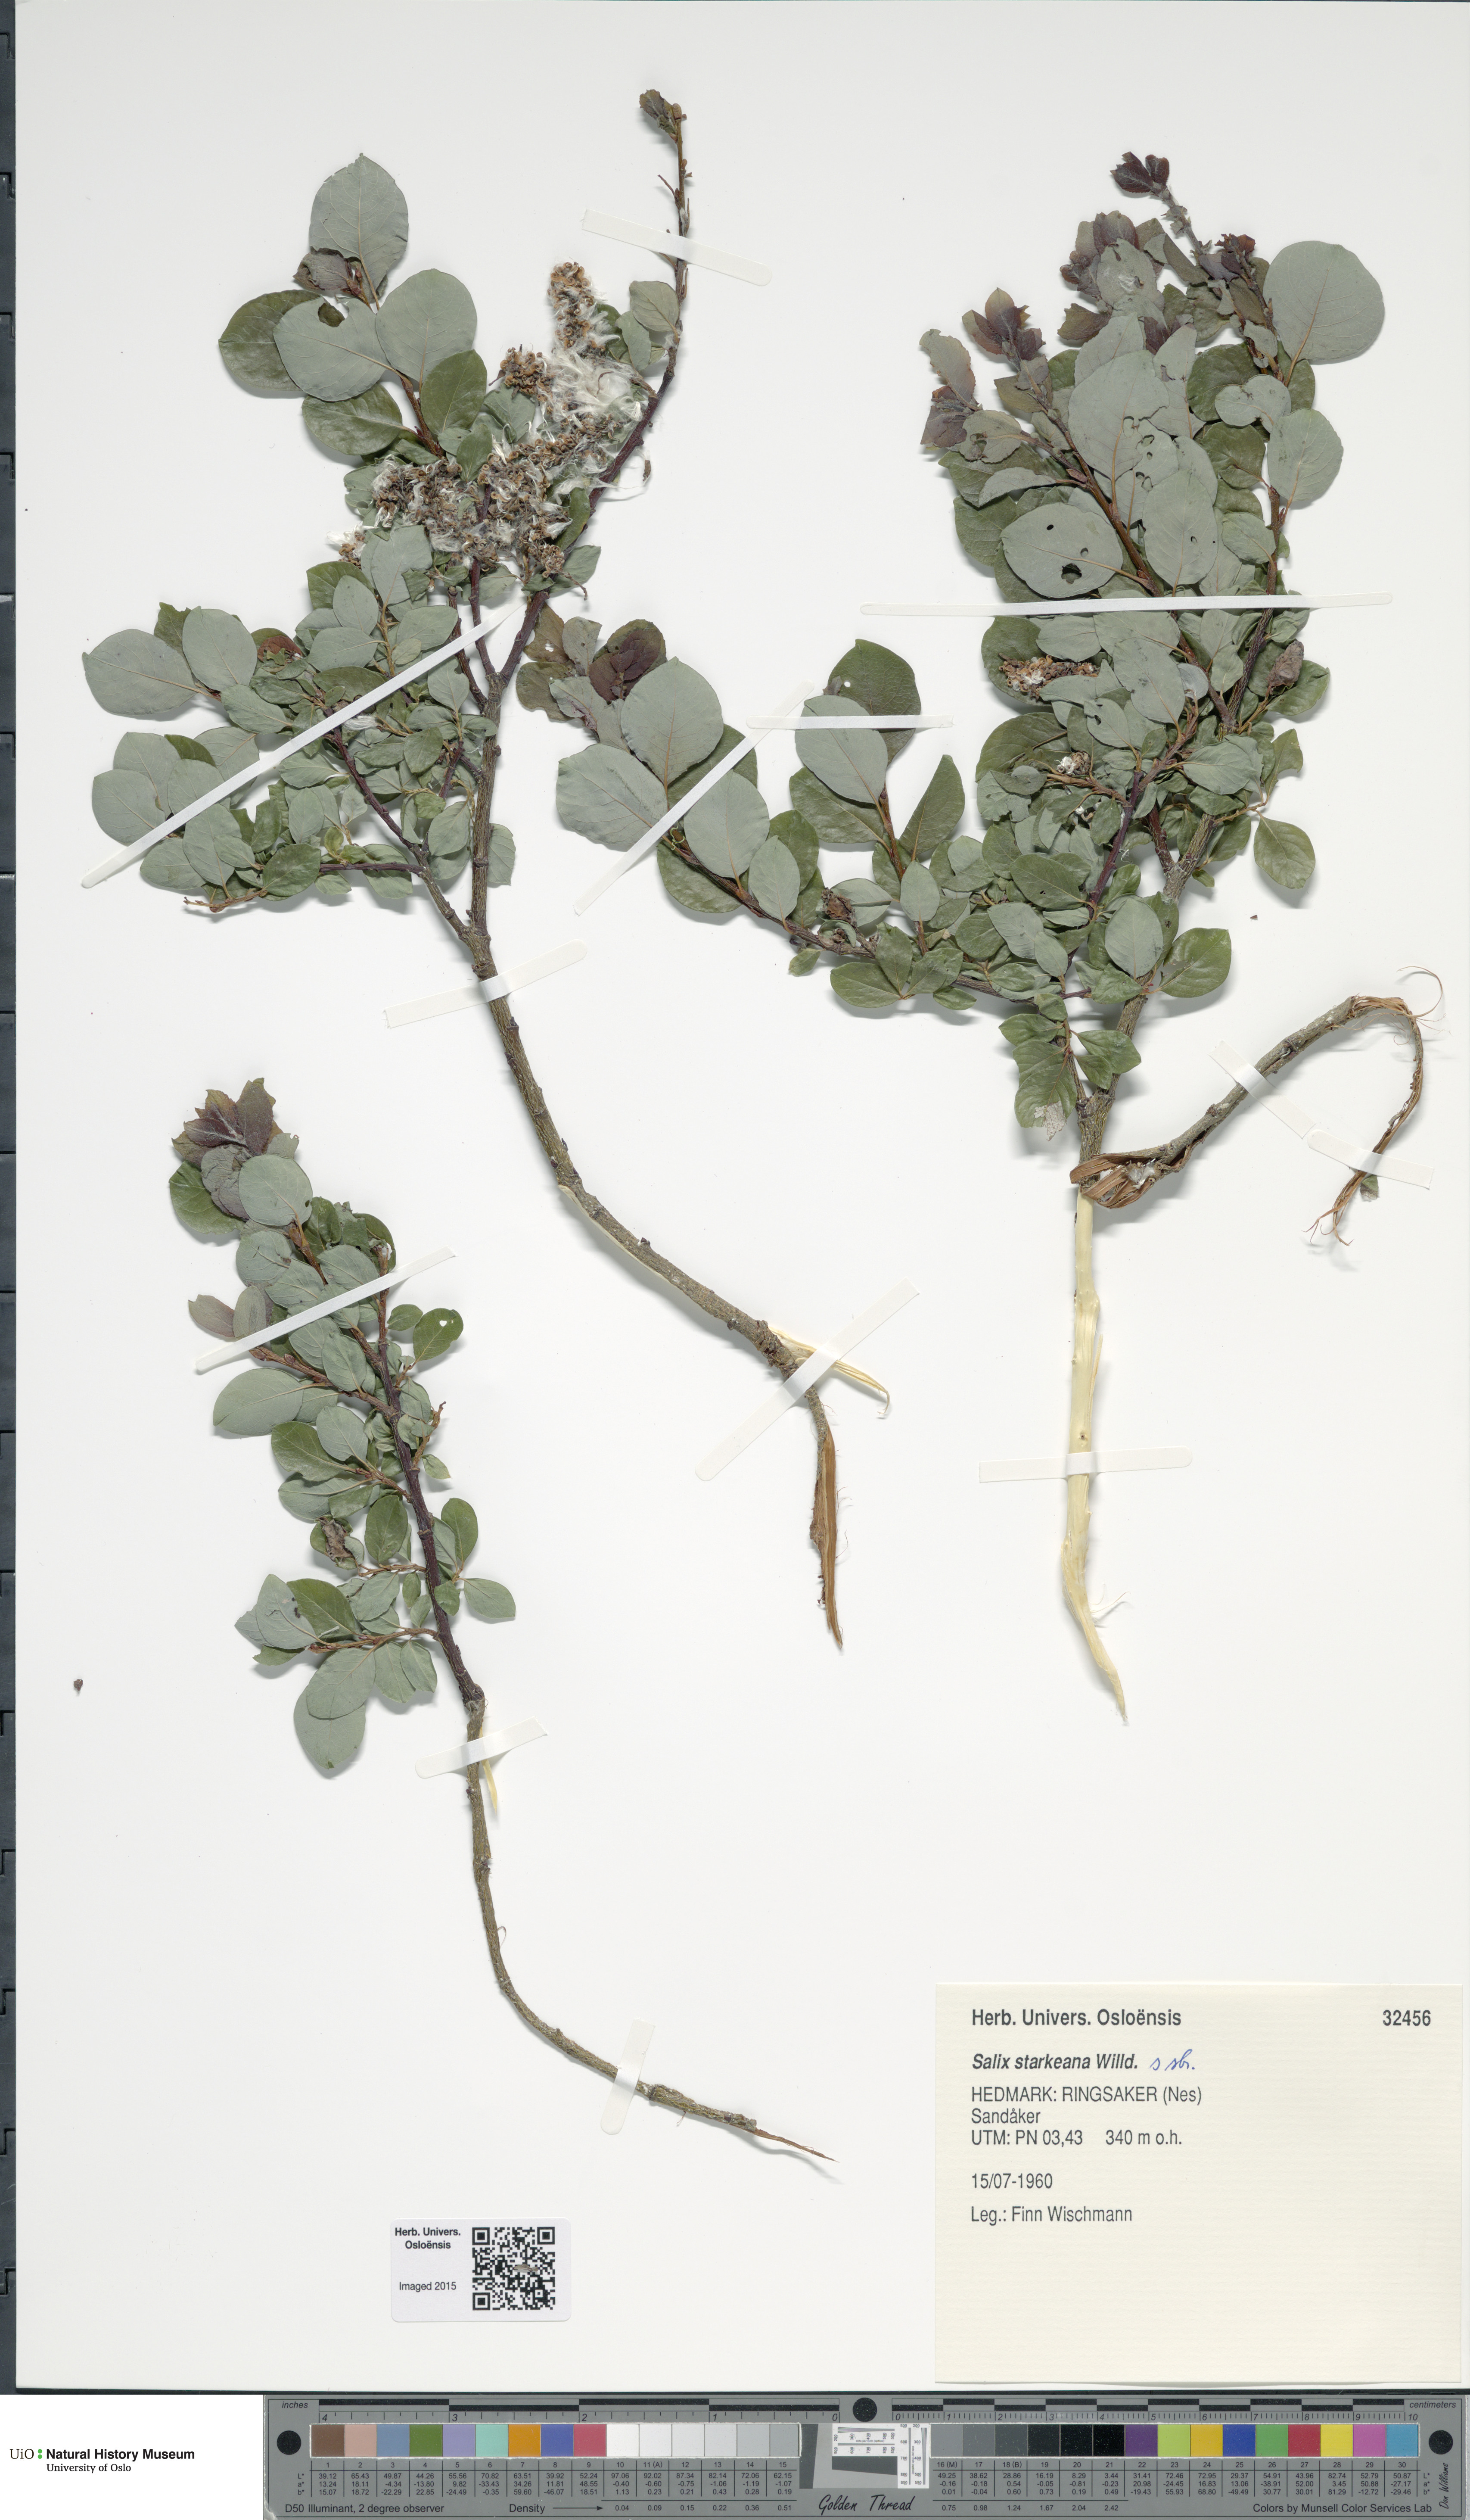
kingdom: Plantae
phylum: Tracheophyta
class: Magnoliopsida
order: Malpighiales
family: Salicaceae
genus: Salix
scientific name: Salix starkeana
